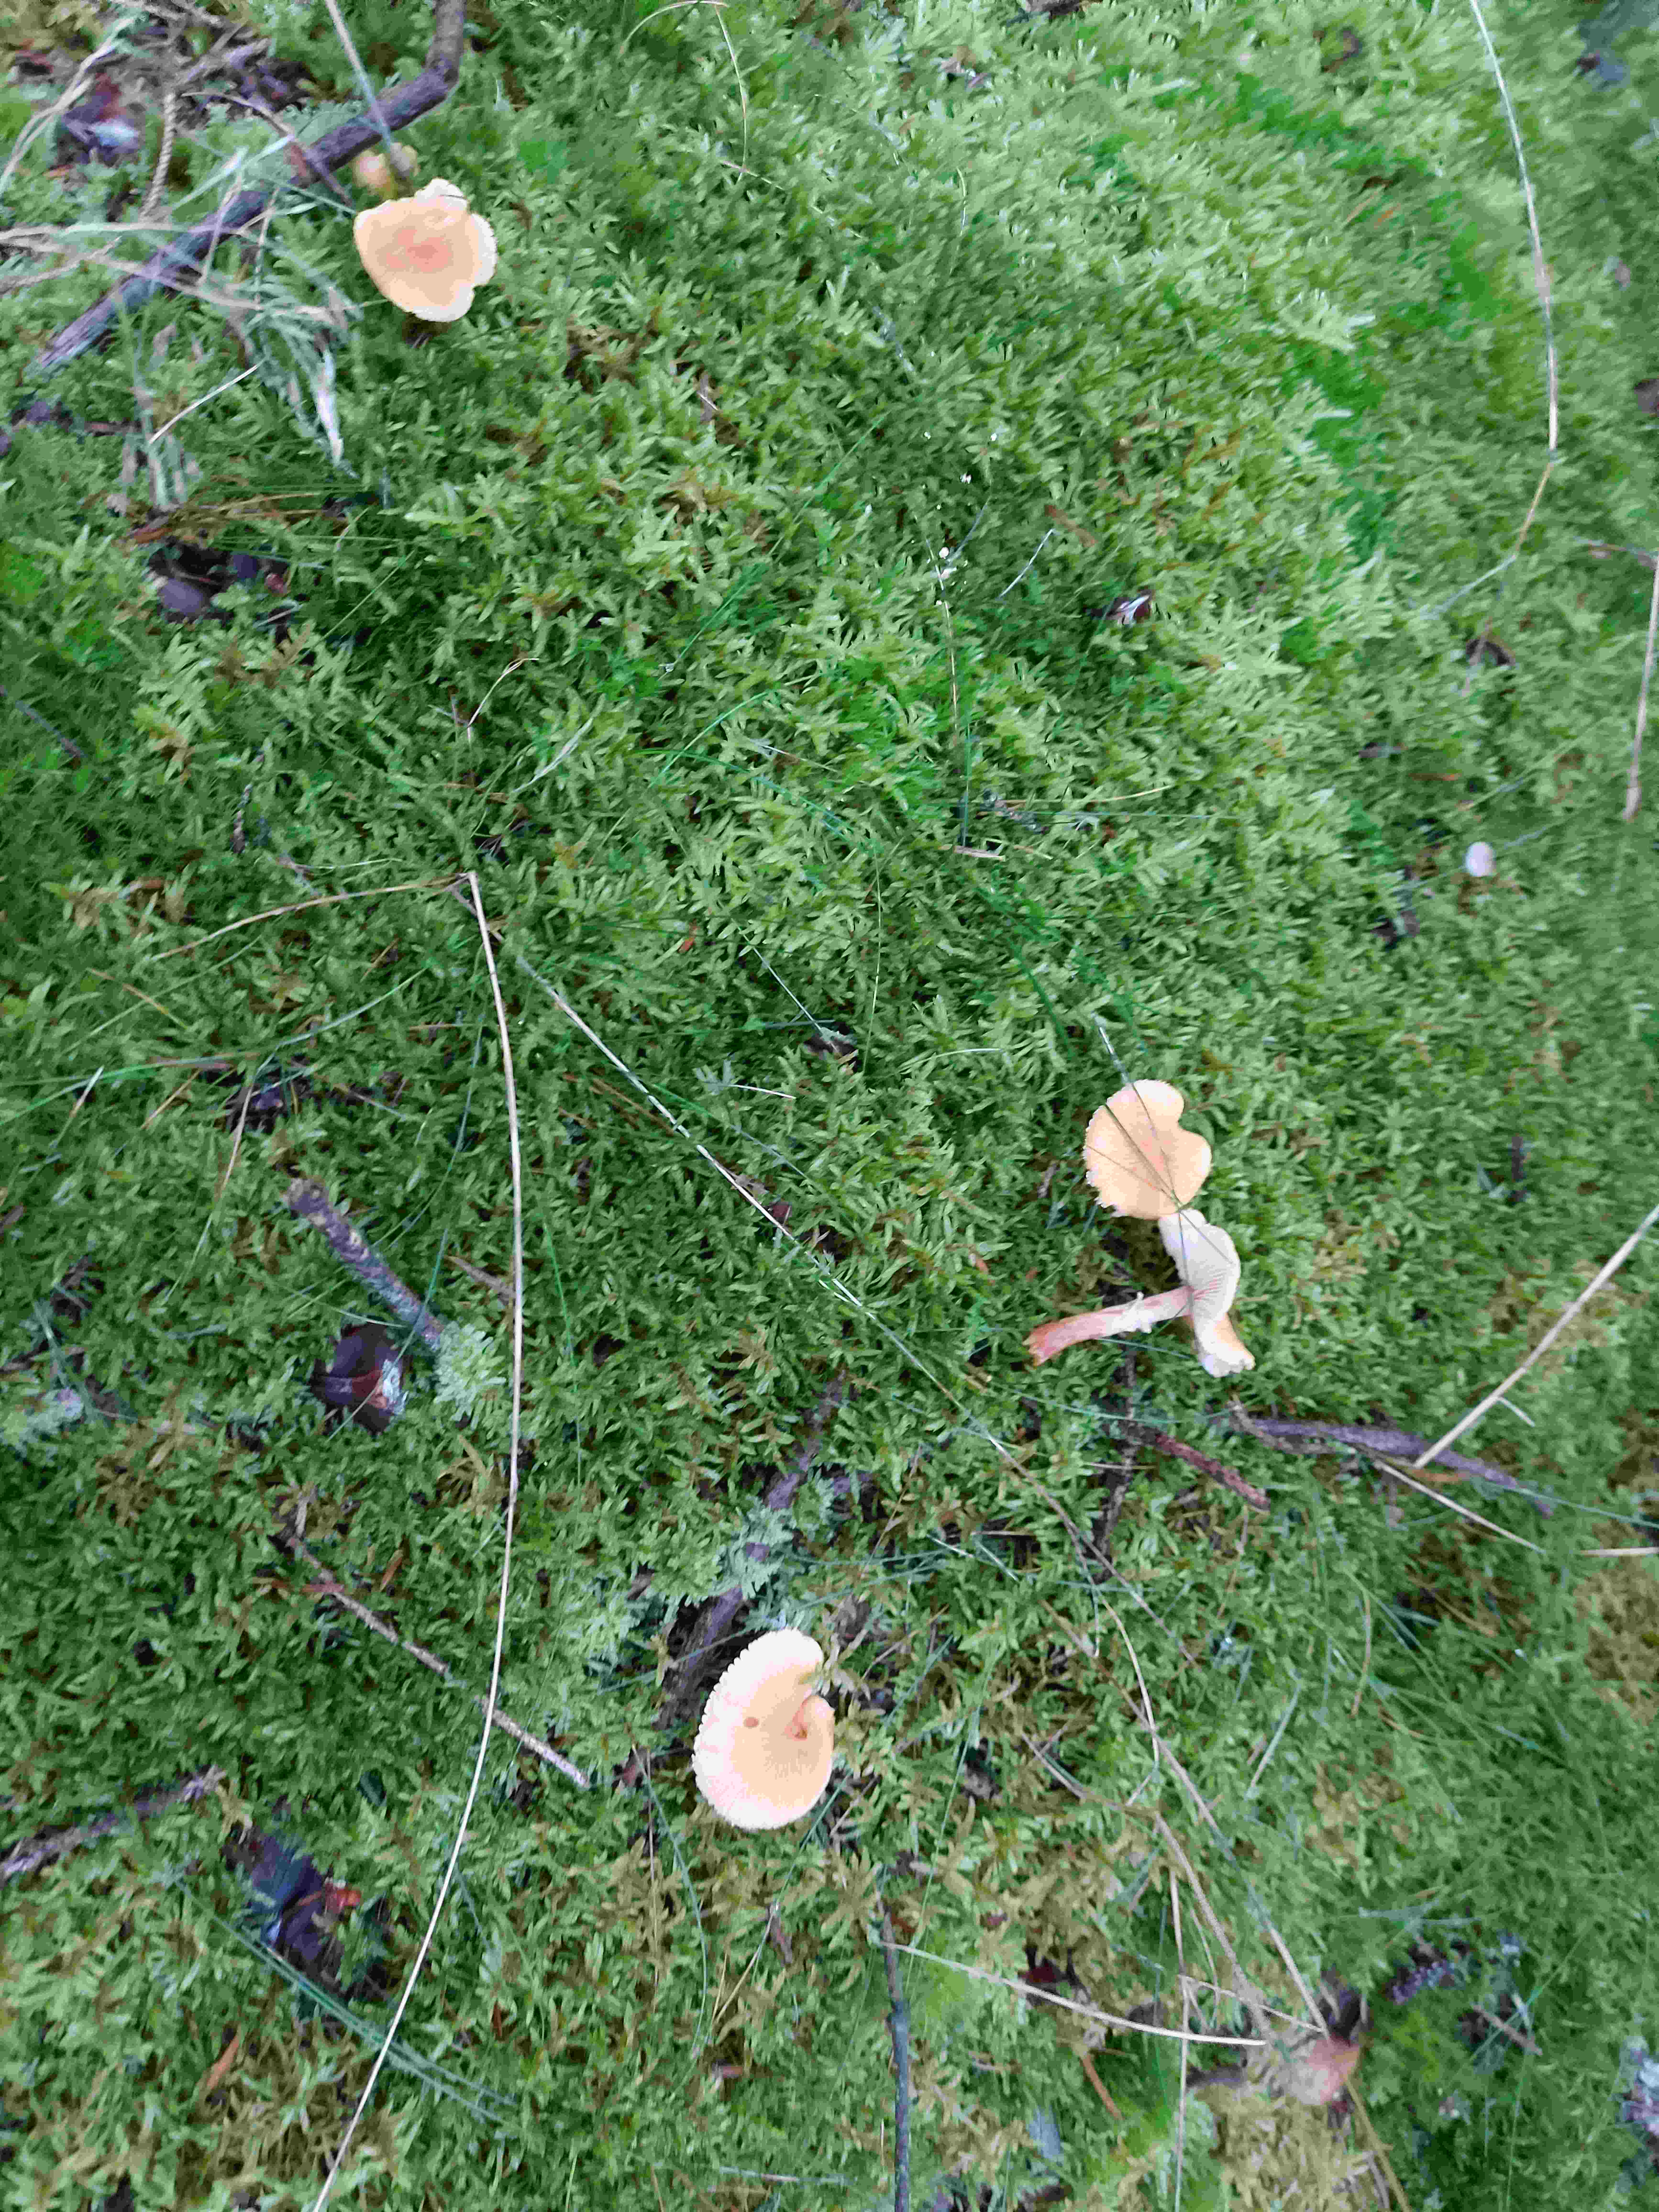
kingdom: Fungi
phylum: Basidiomycota
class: Agaricomycetes
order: Agaricales
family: Tricholomataceae
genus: Cystoderma
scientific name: Cystoderma amianthinum
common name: okkergul grynhat
